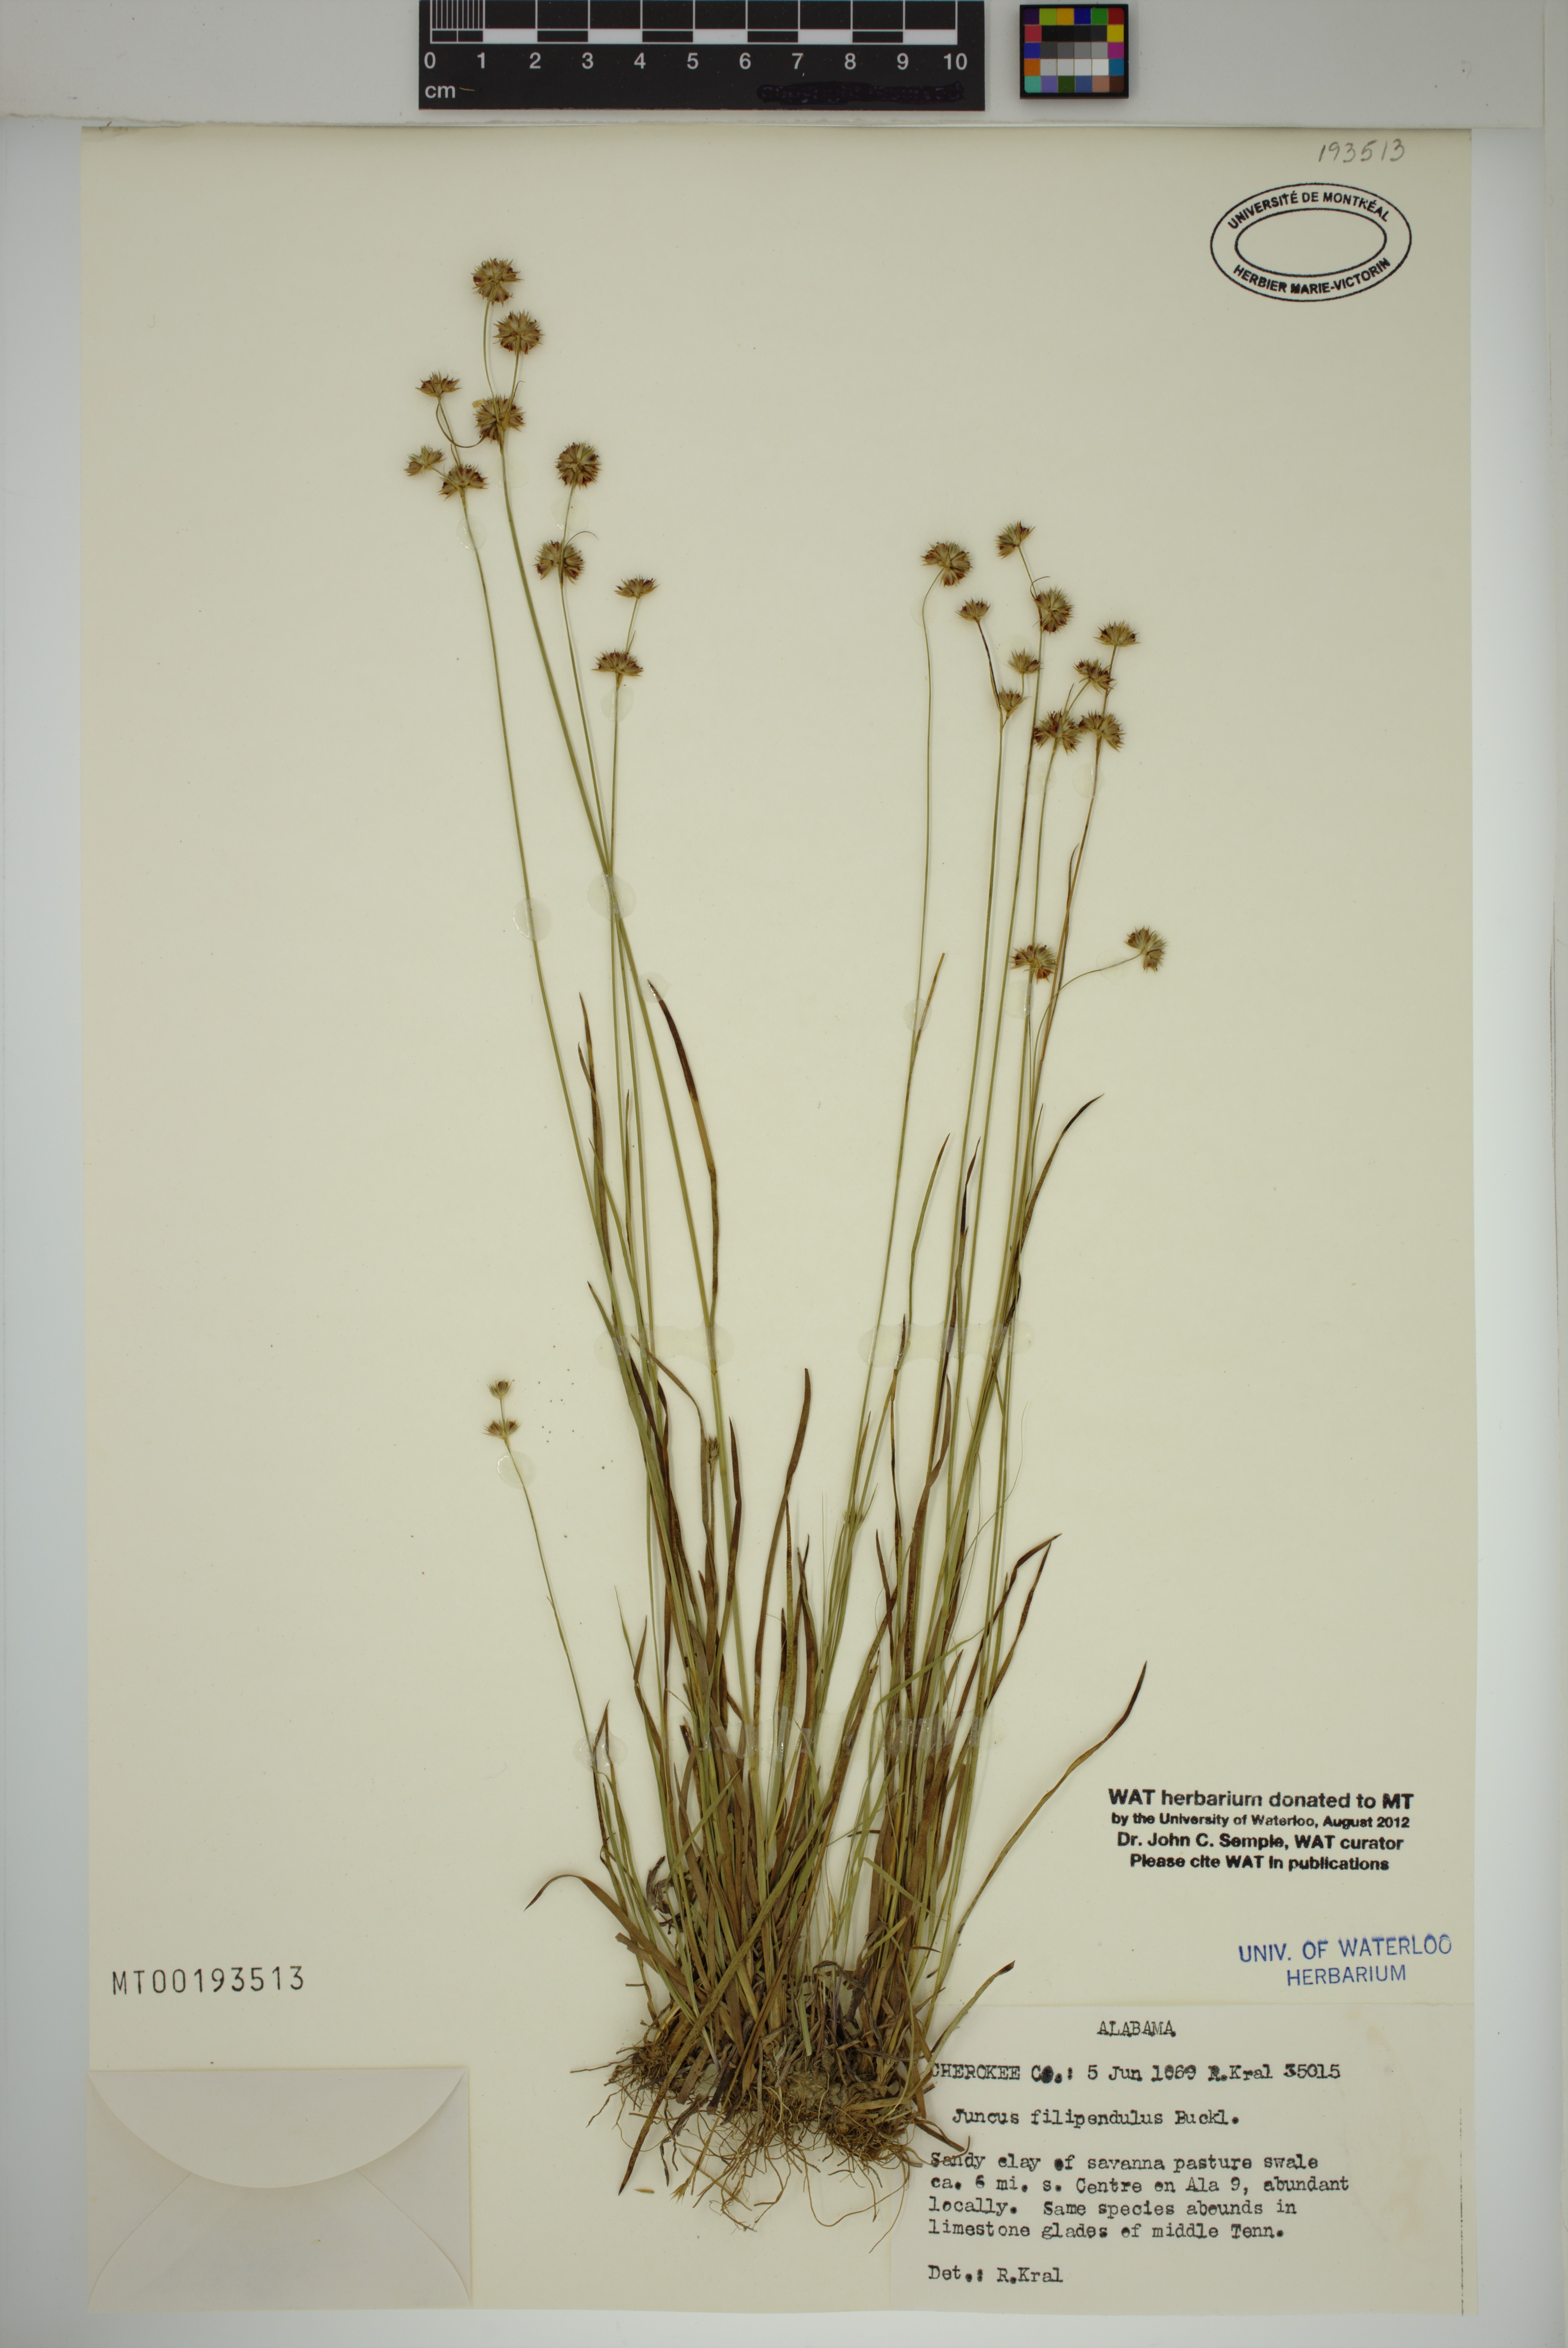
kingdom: Plantae
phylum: Tracheophyta
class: Liliopsida
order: Poales
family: Juncaceae
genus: Juncus
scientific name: Juncus filipendulus
